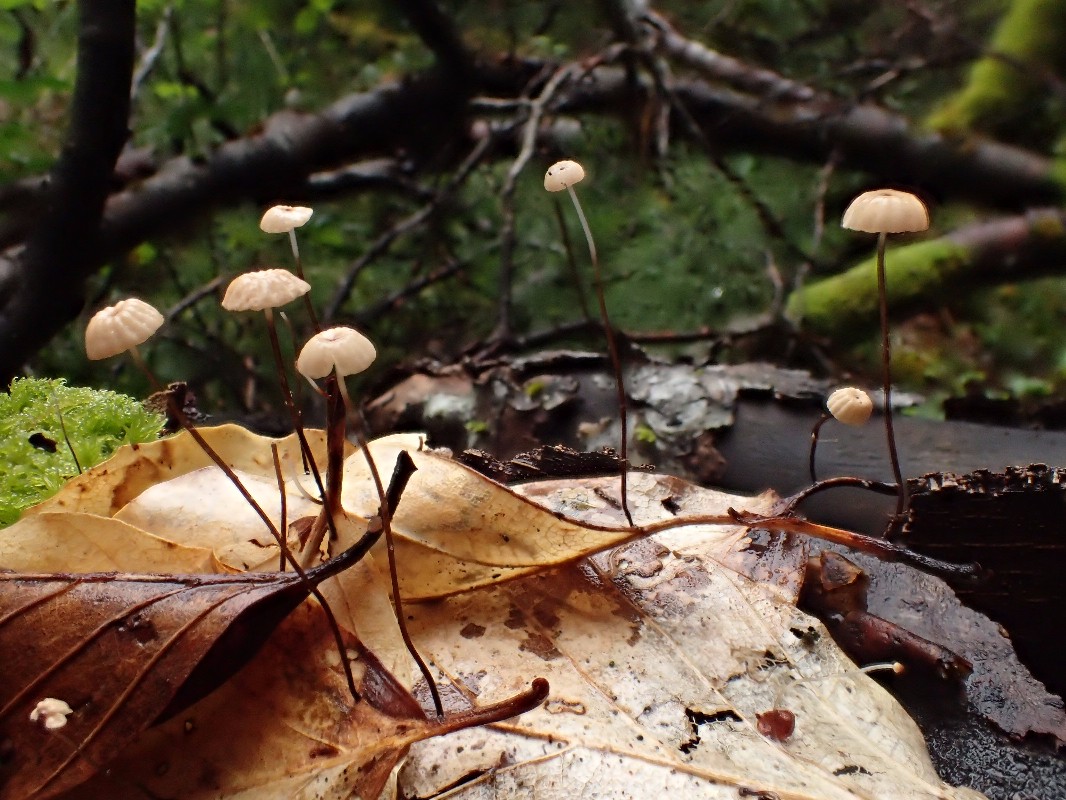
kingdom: Fungi
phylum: Basidiomycota
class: Agaricomycetes
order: Agaricales
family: Marasmiaceae
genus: Marasmius
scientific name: Marasmius bulliardii
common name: furet bruskhat
